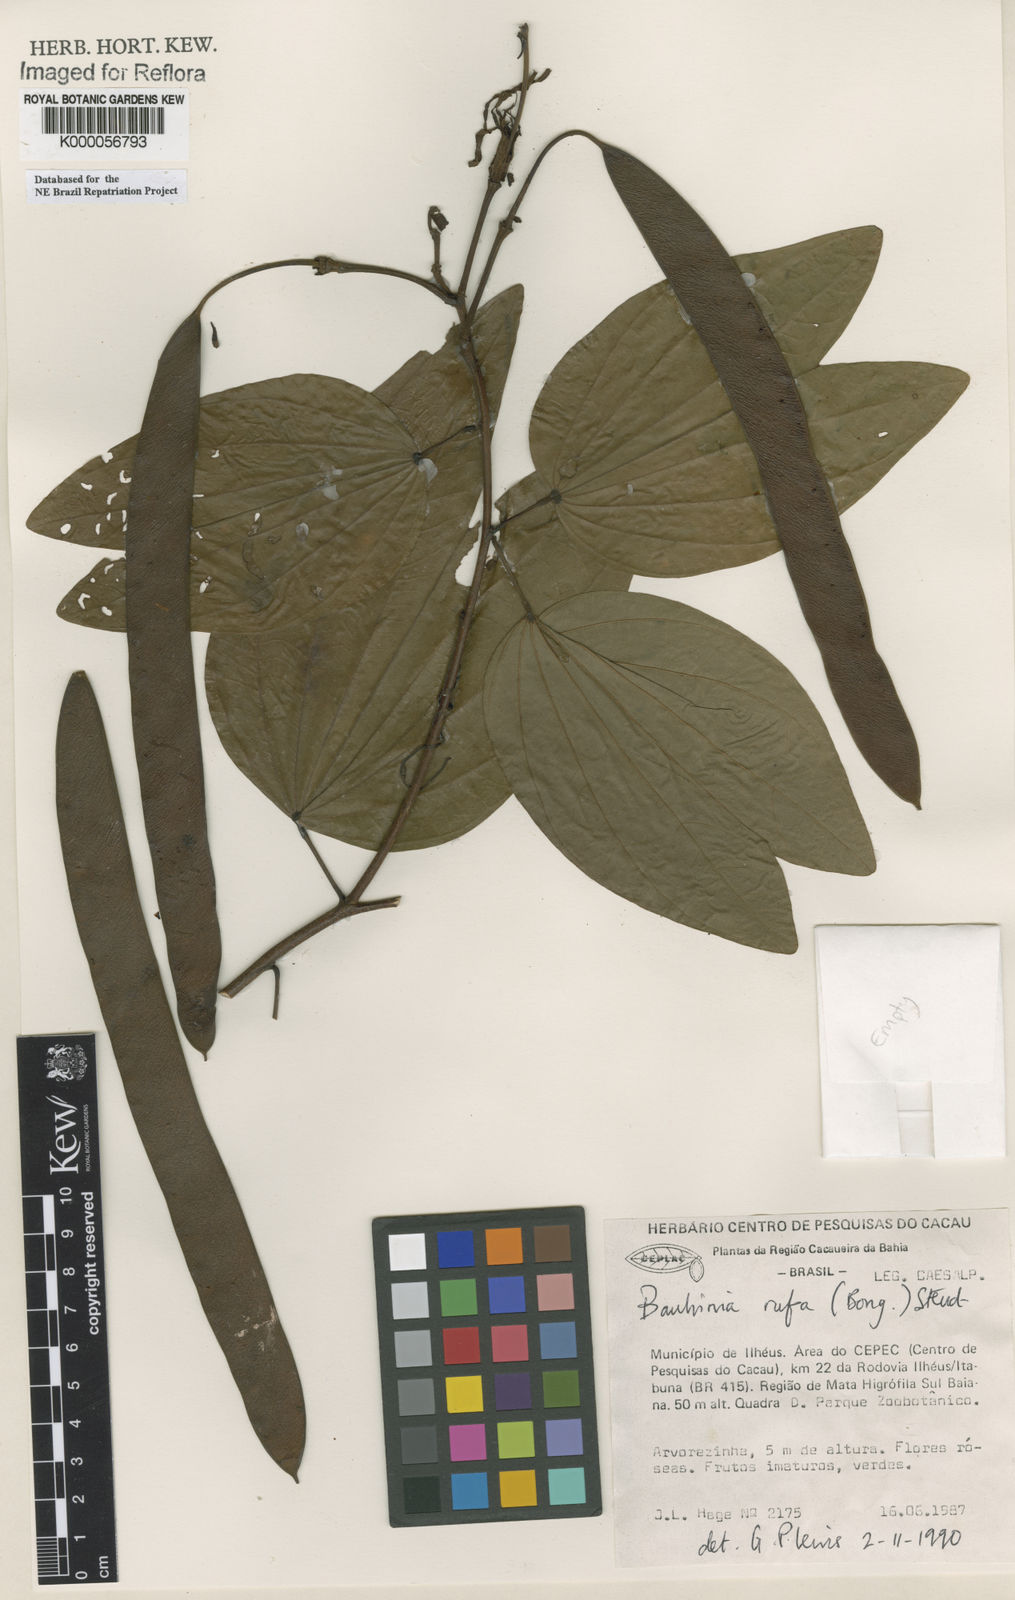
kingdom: Plantae
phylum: Tracheophyta
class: Magnoliopsida
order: Fabales
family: Fabaceae
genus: Bauhinia
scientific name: Bauhinia rufa
